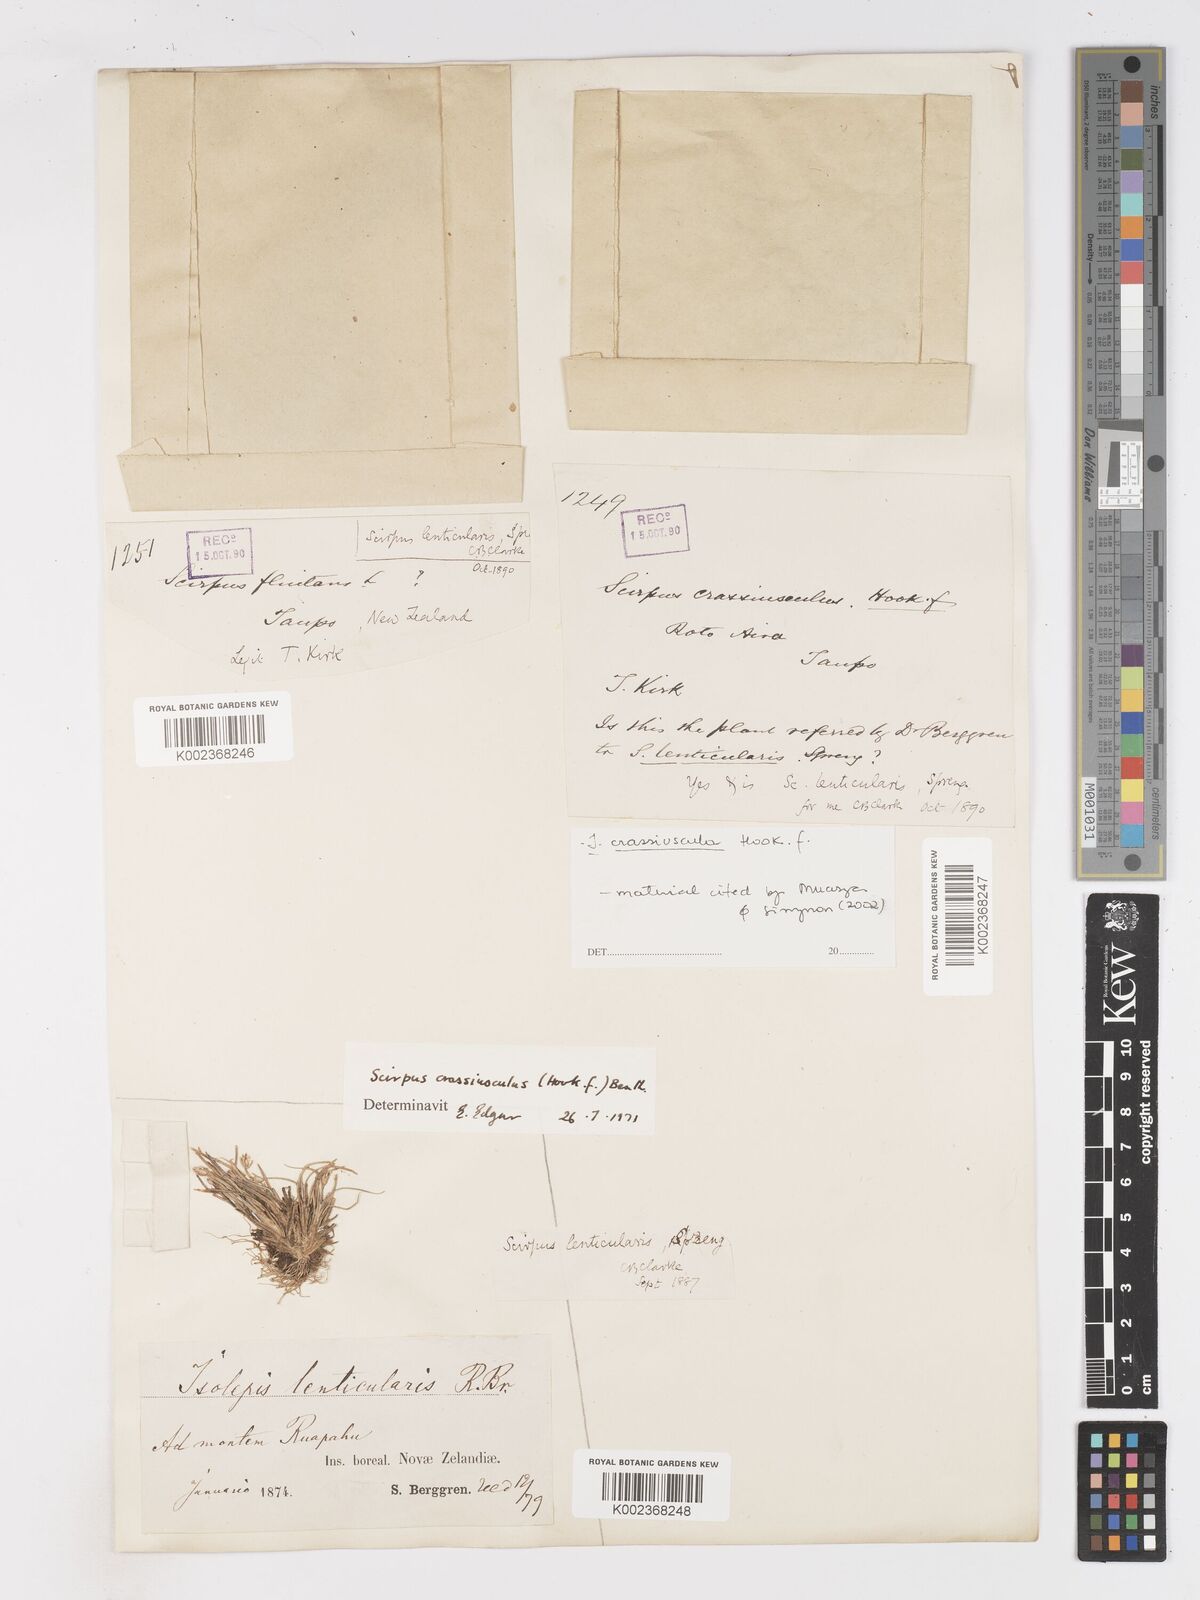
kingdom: Plantae
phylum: Tracheophyta
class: Liliopsida
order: Poales
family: Cyperaceae
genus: Isolepis
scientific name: Isolepis crassiuscula
